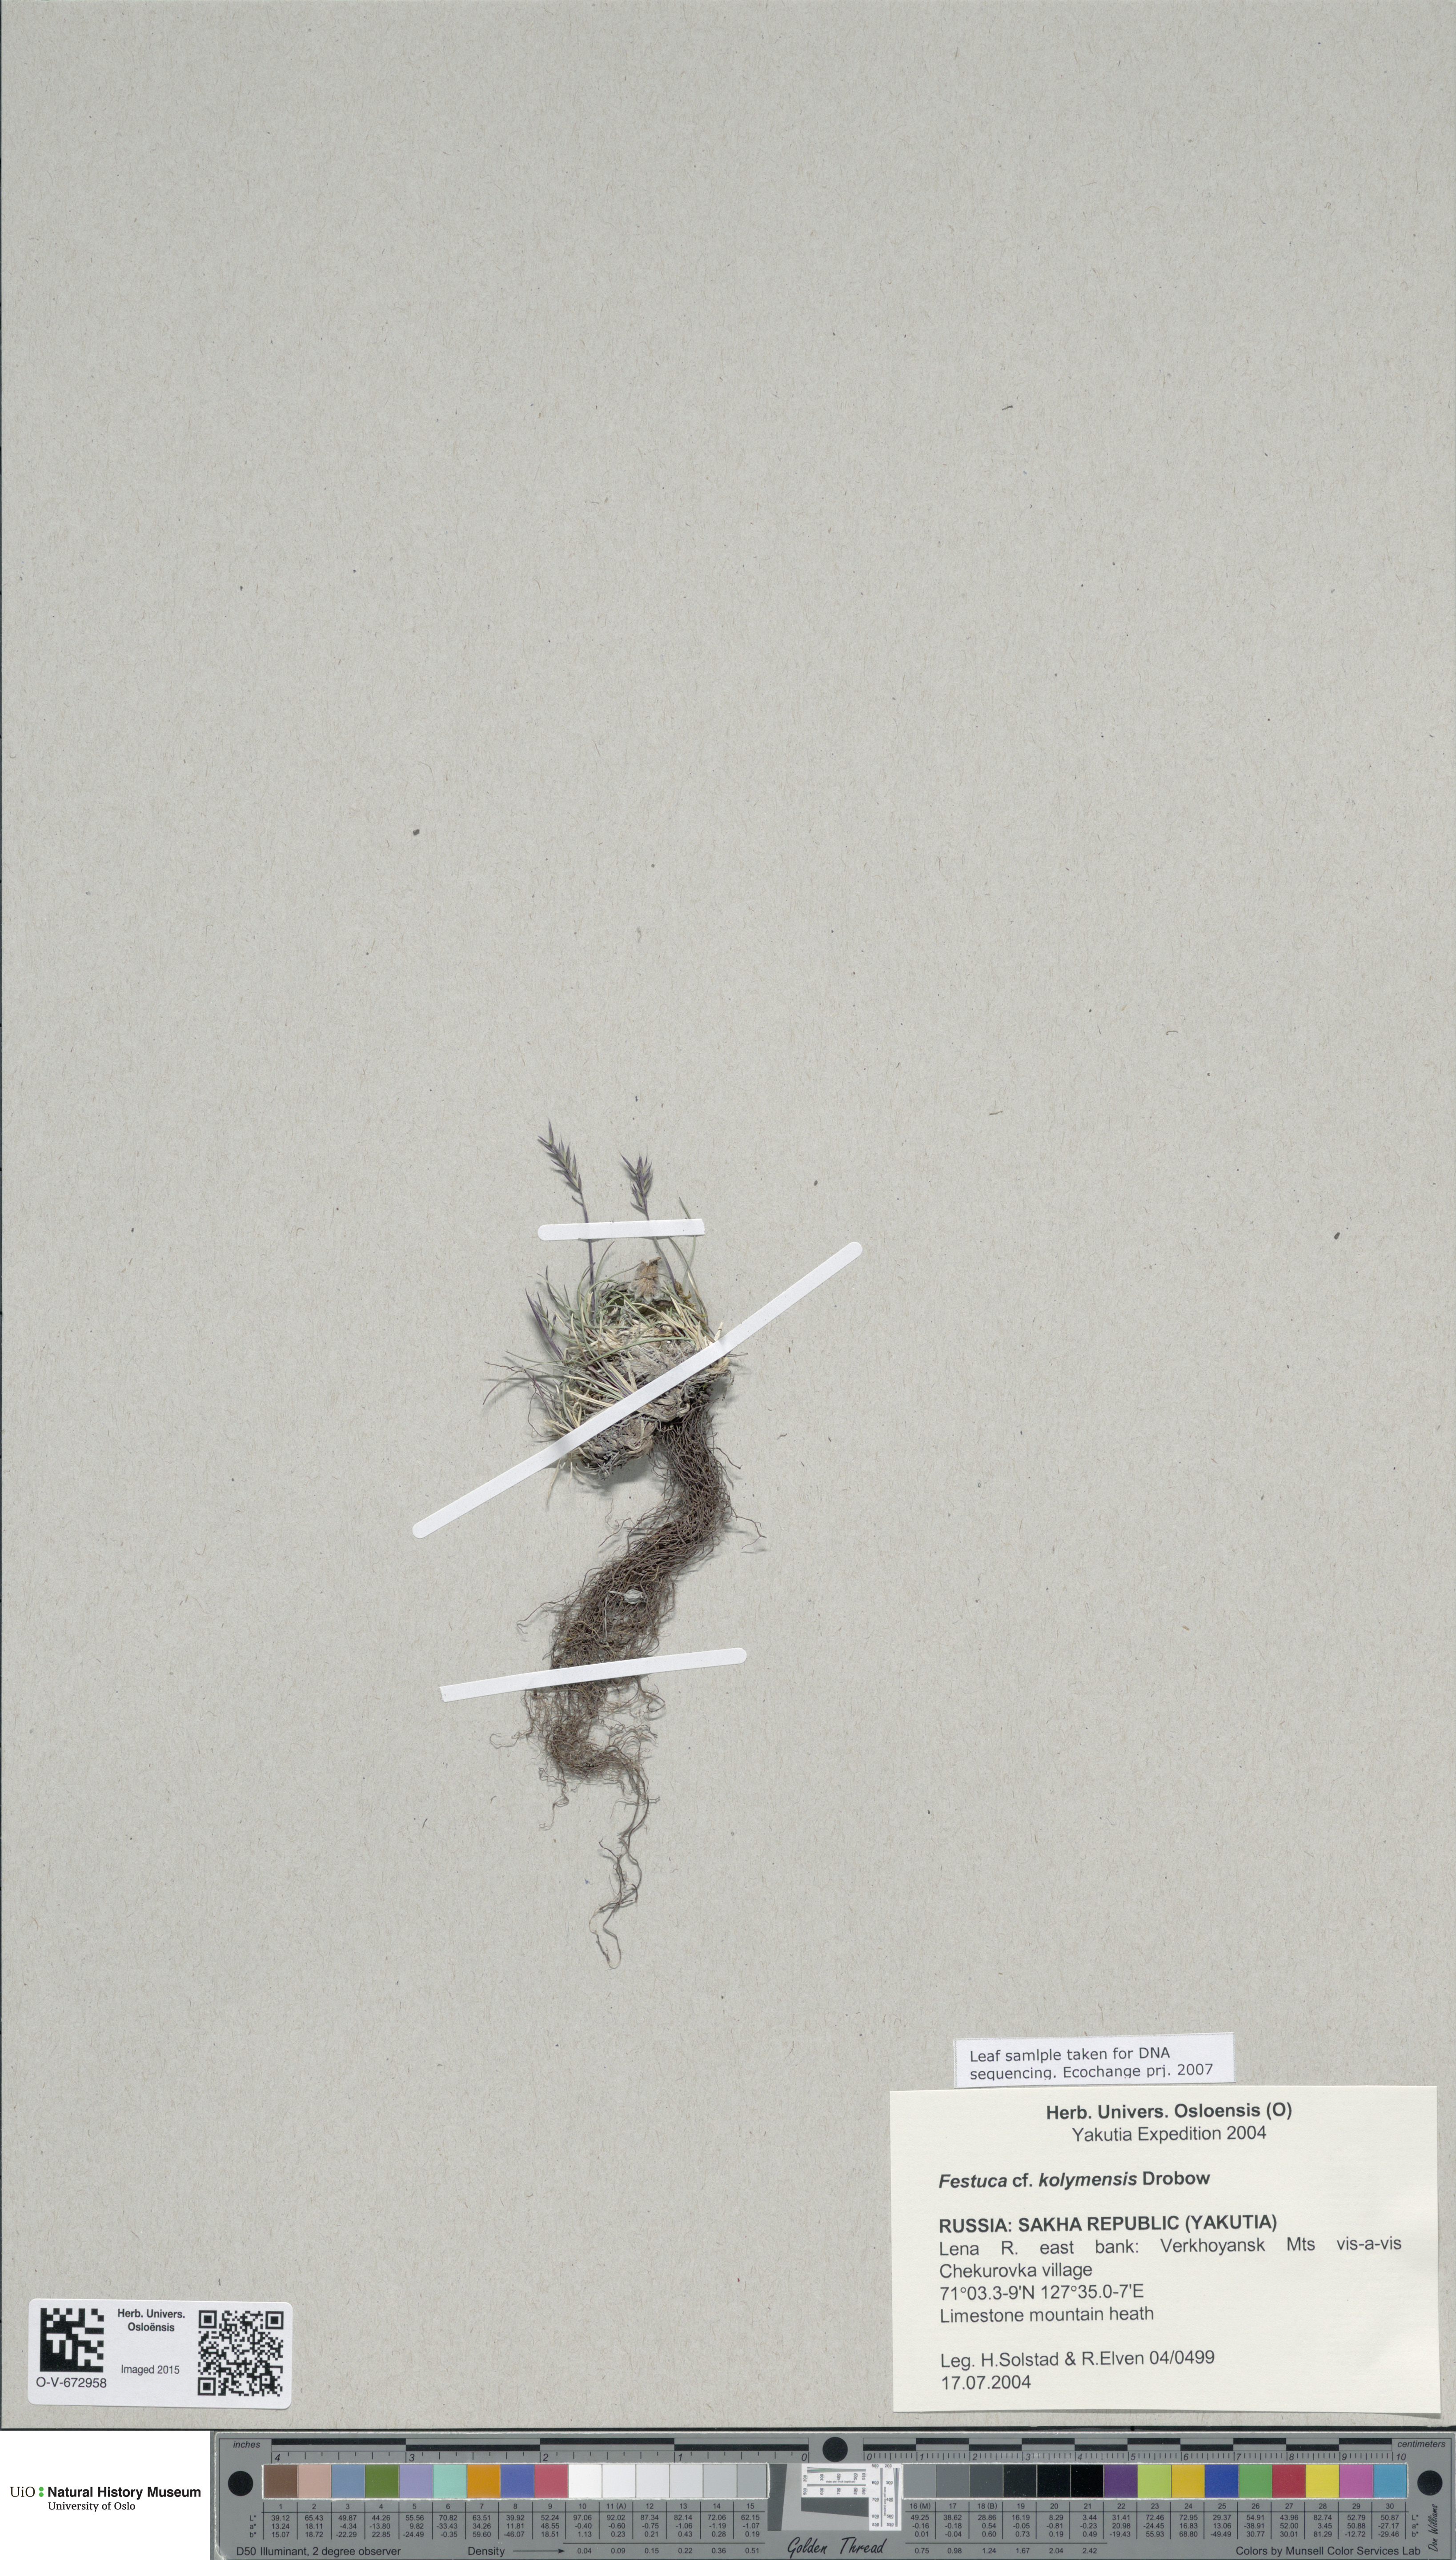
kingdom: Plantae
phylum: Tracheophyta
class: Liliopsida
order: Poales
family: Poaceae
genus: Festuca
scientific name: Festuca kolymensis
